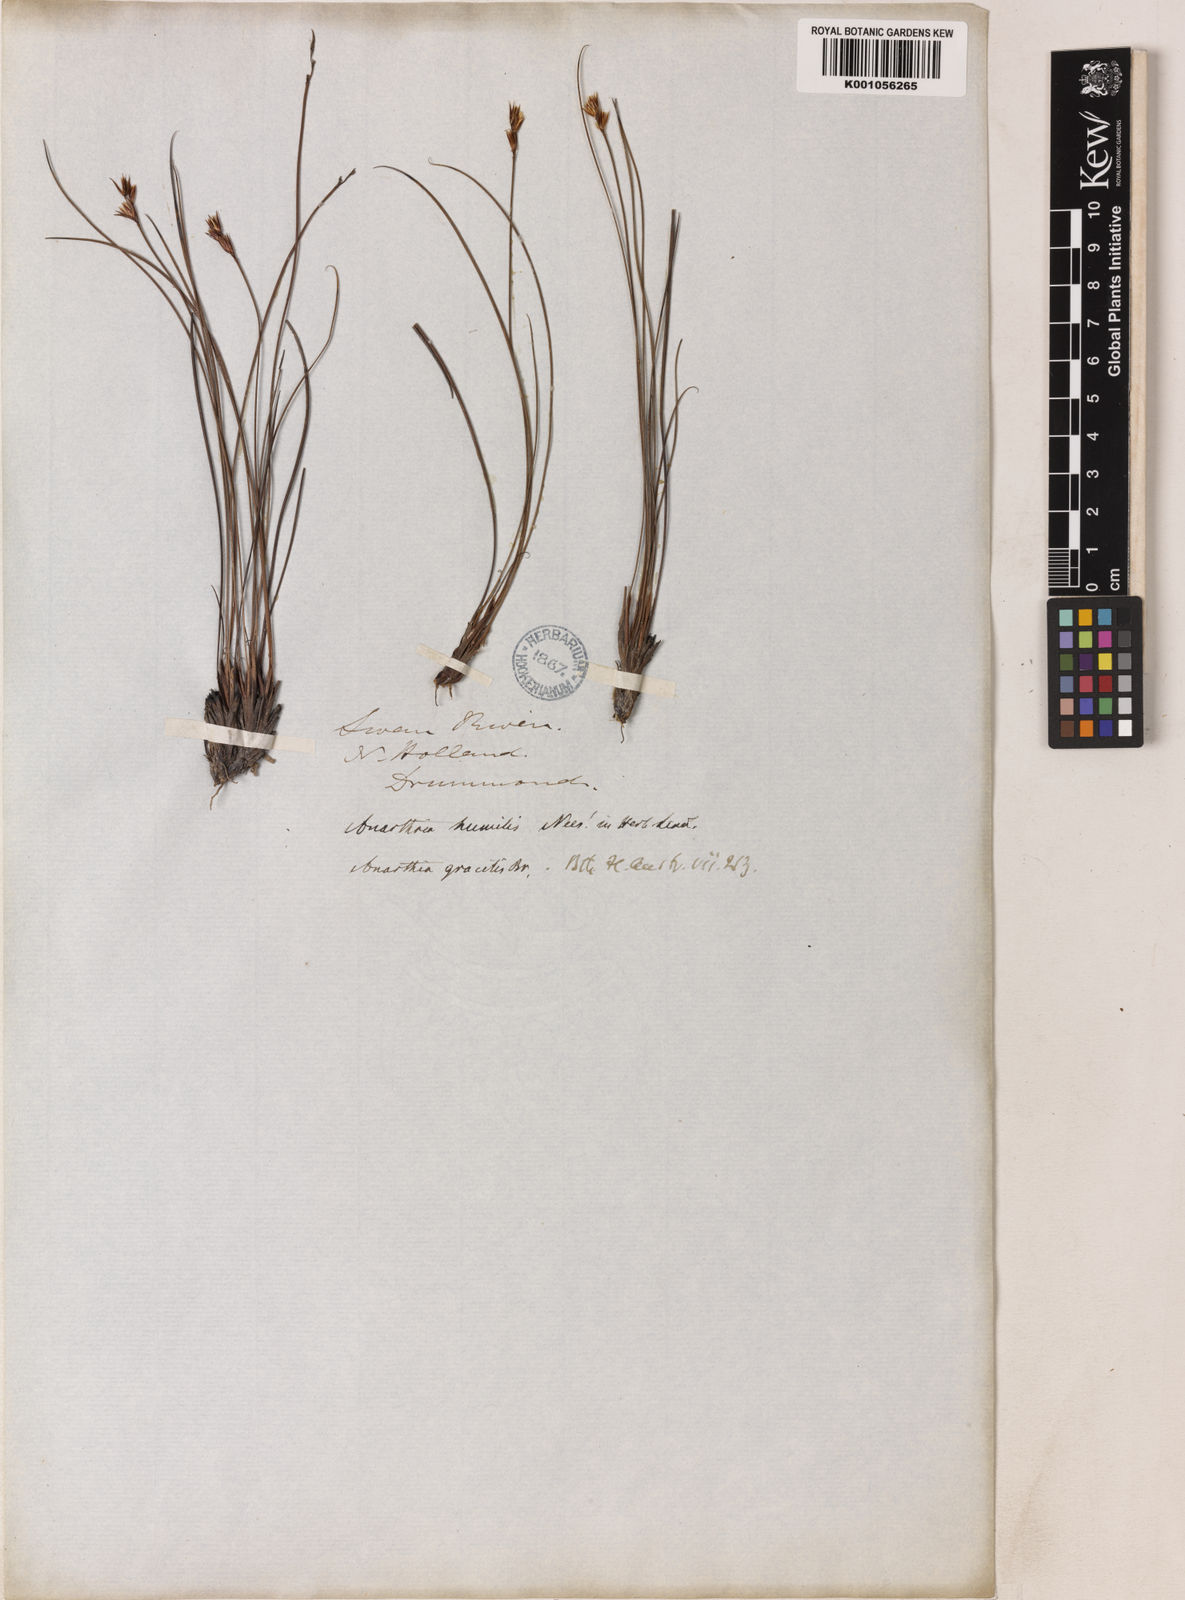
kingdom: Plantae
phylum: Tracheophyta
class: Liliopsida
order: Poales
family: Restionaceae
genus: Anarthria
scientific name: Anarthria gracilis
